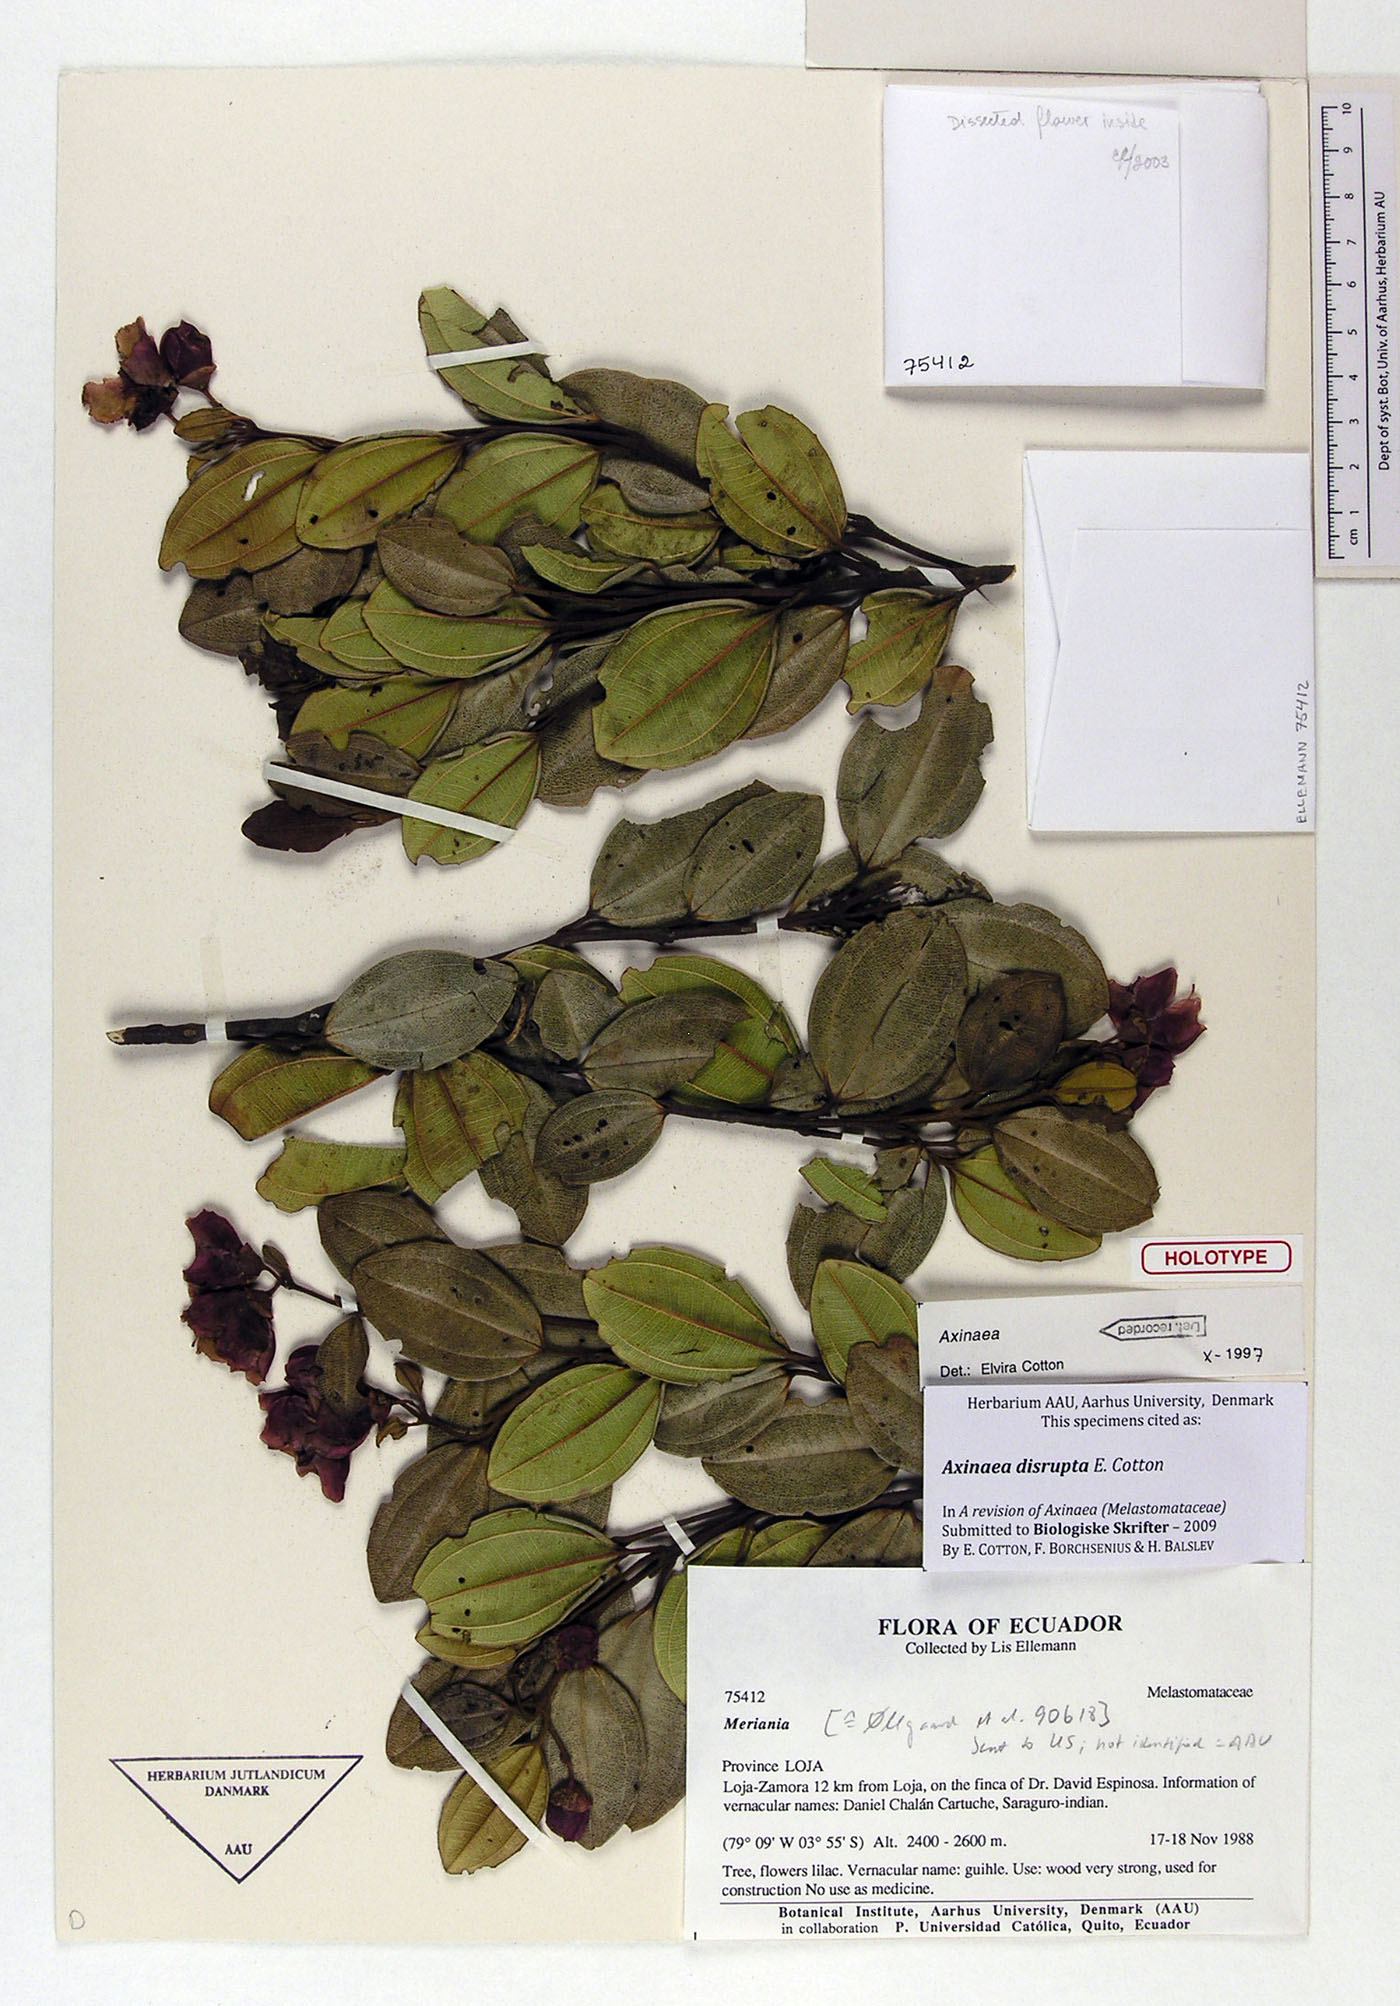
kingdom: Plantae
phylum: Tracheophyta
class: Magnoliopsida
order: Myrtales
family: Melastomataceae
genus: Axinaea
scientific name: Axinaea disrupta
